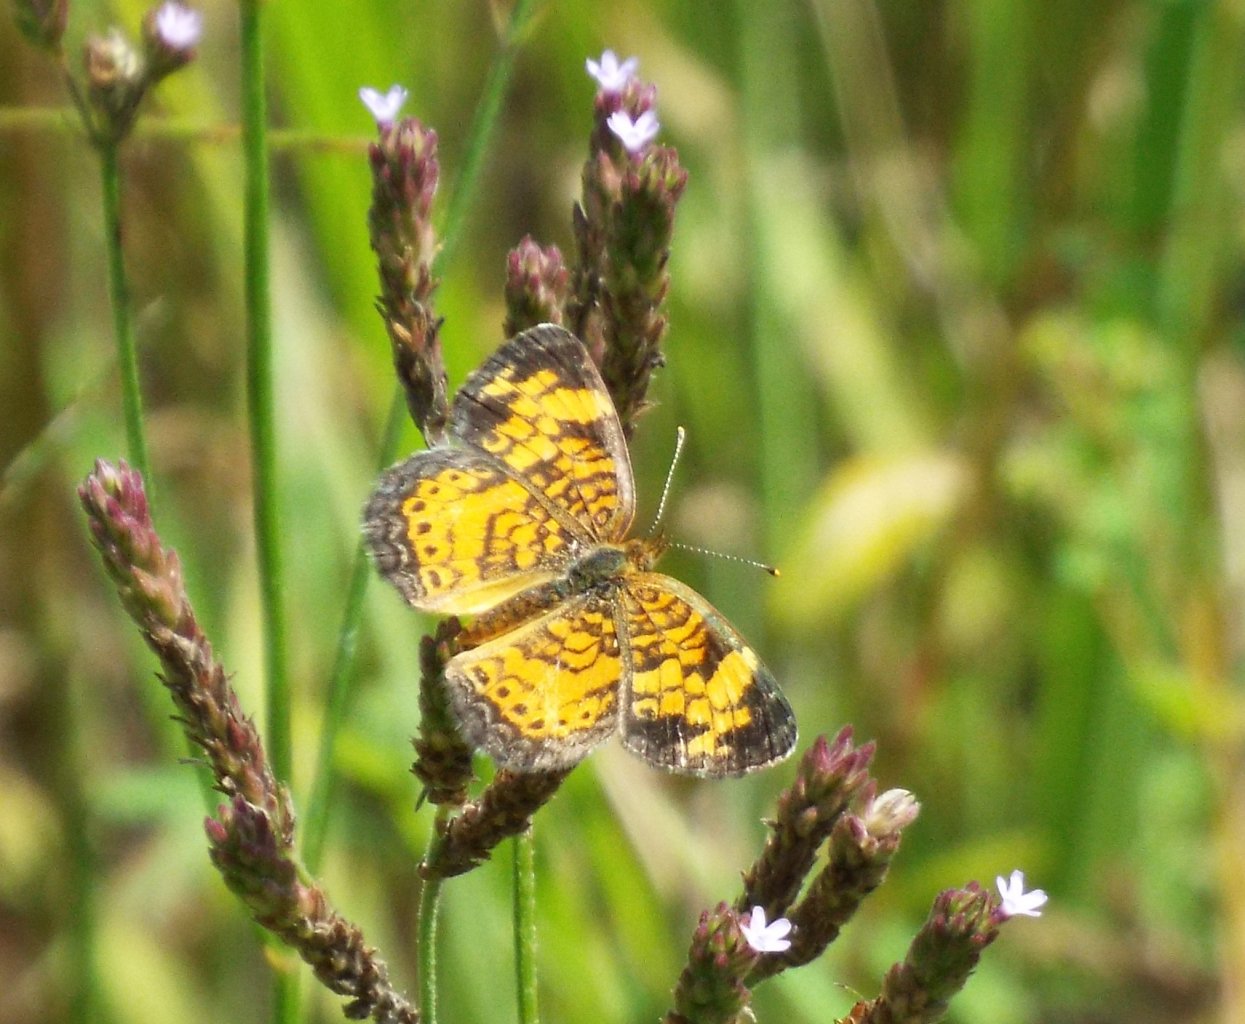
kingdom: Animalia
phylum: Arthropoda
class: Insecta
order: Lepidoptera
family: Nymphalidae
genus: Phyciodes
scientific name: Phyciodes tharos
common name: Pearl Crescent
